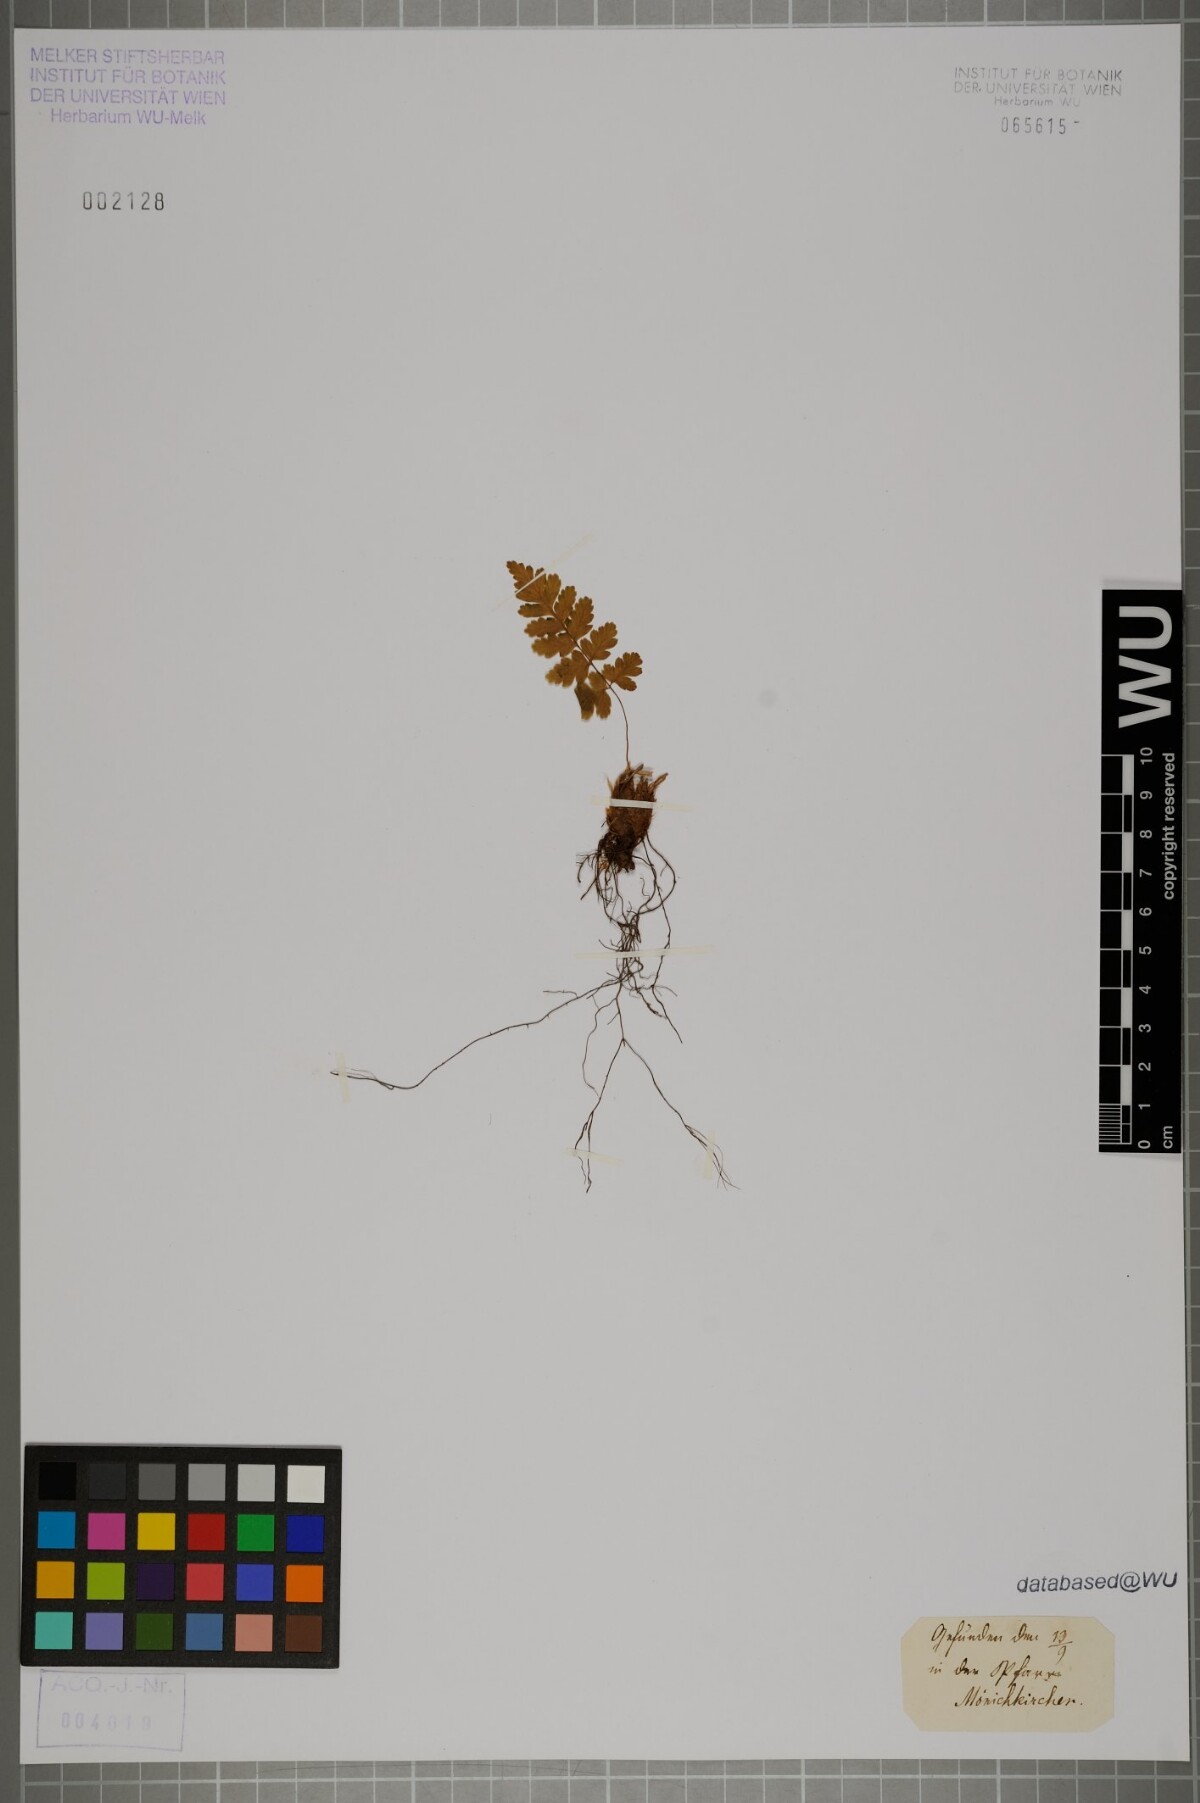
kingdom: Plantae
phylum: Tracheophyta
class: Polypodiopsida
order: Polypodiales
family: Dryopteridaceae
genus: Dryopteris
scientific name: Dryopteris
